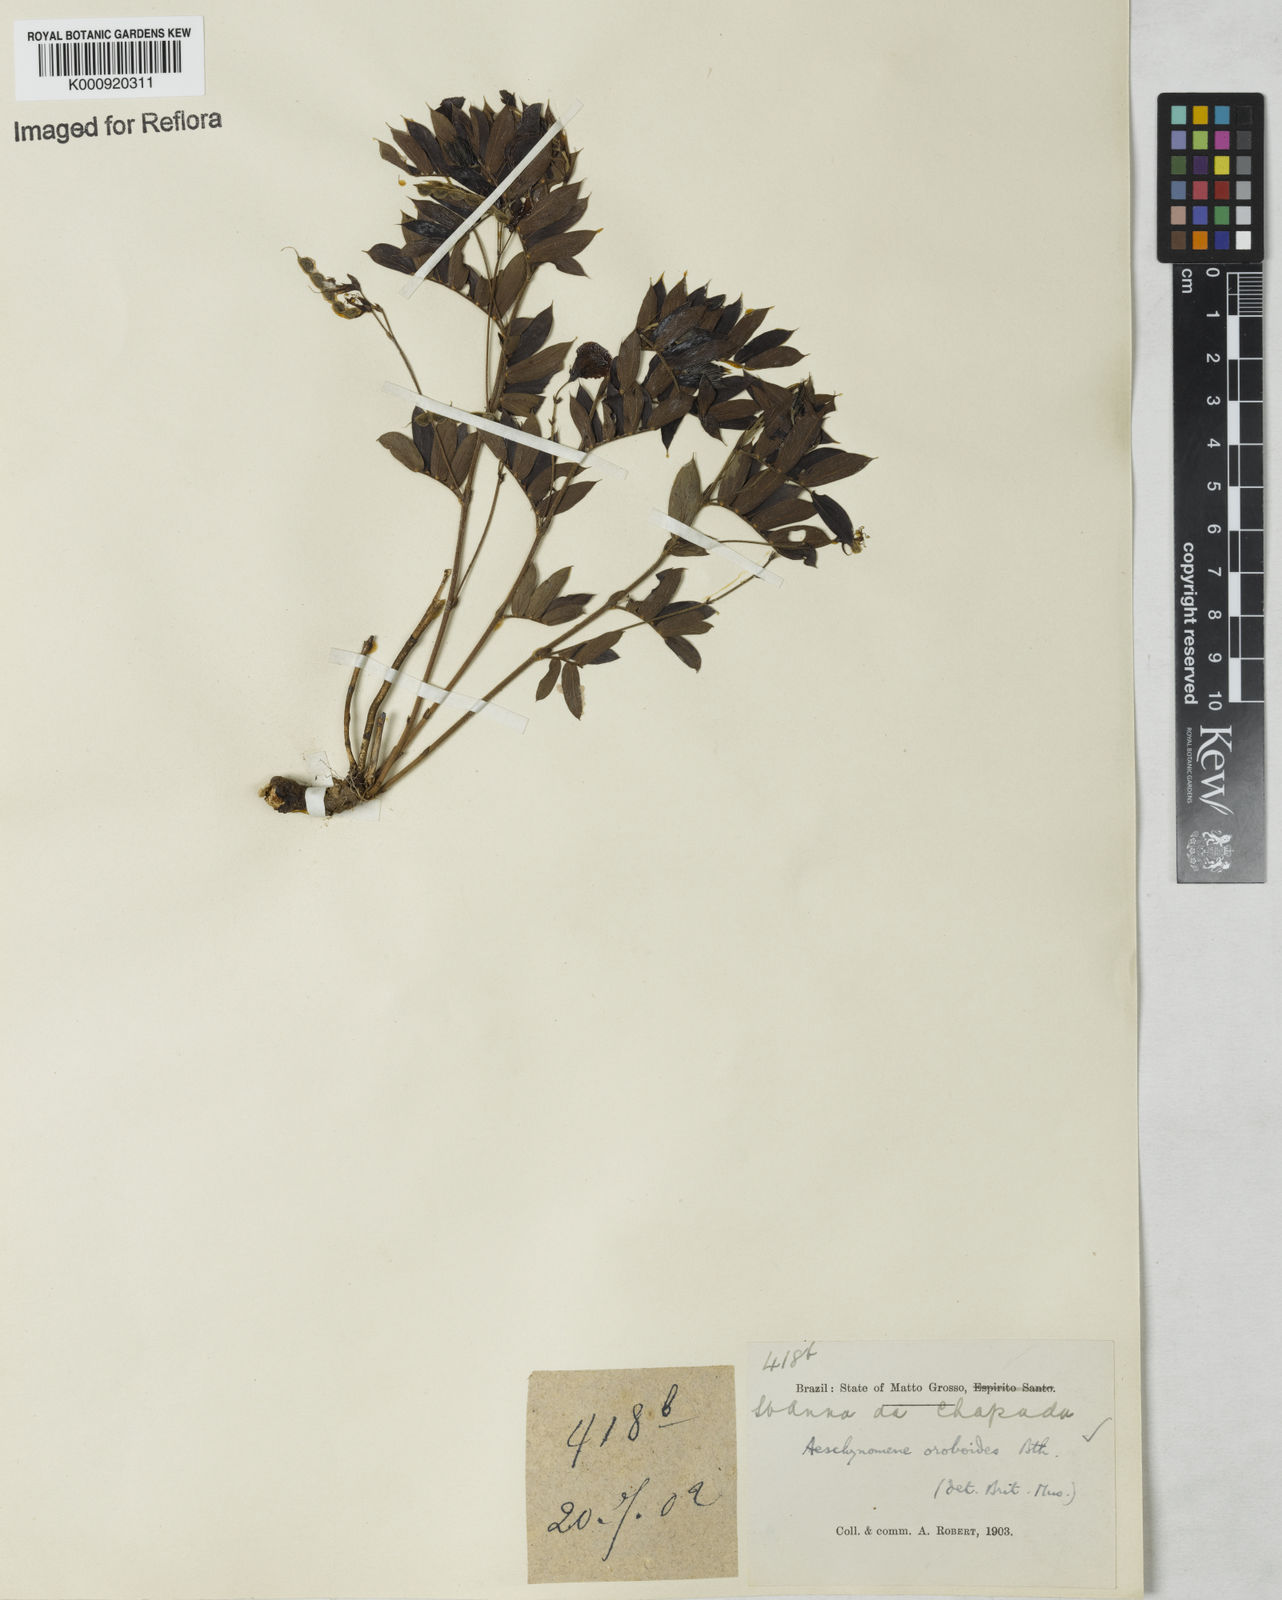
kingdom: Plantae
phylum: Tracheophyta
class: Magnoliopsida
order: Fabales
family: Fabaceae
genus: Ctenodon
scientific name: Ctenodon oroboides
